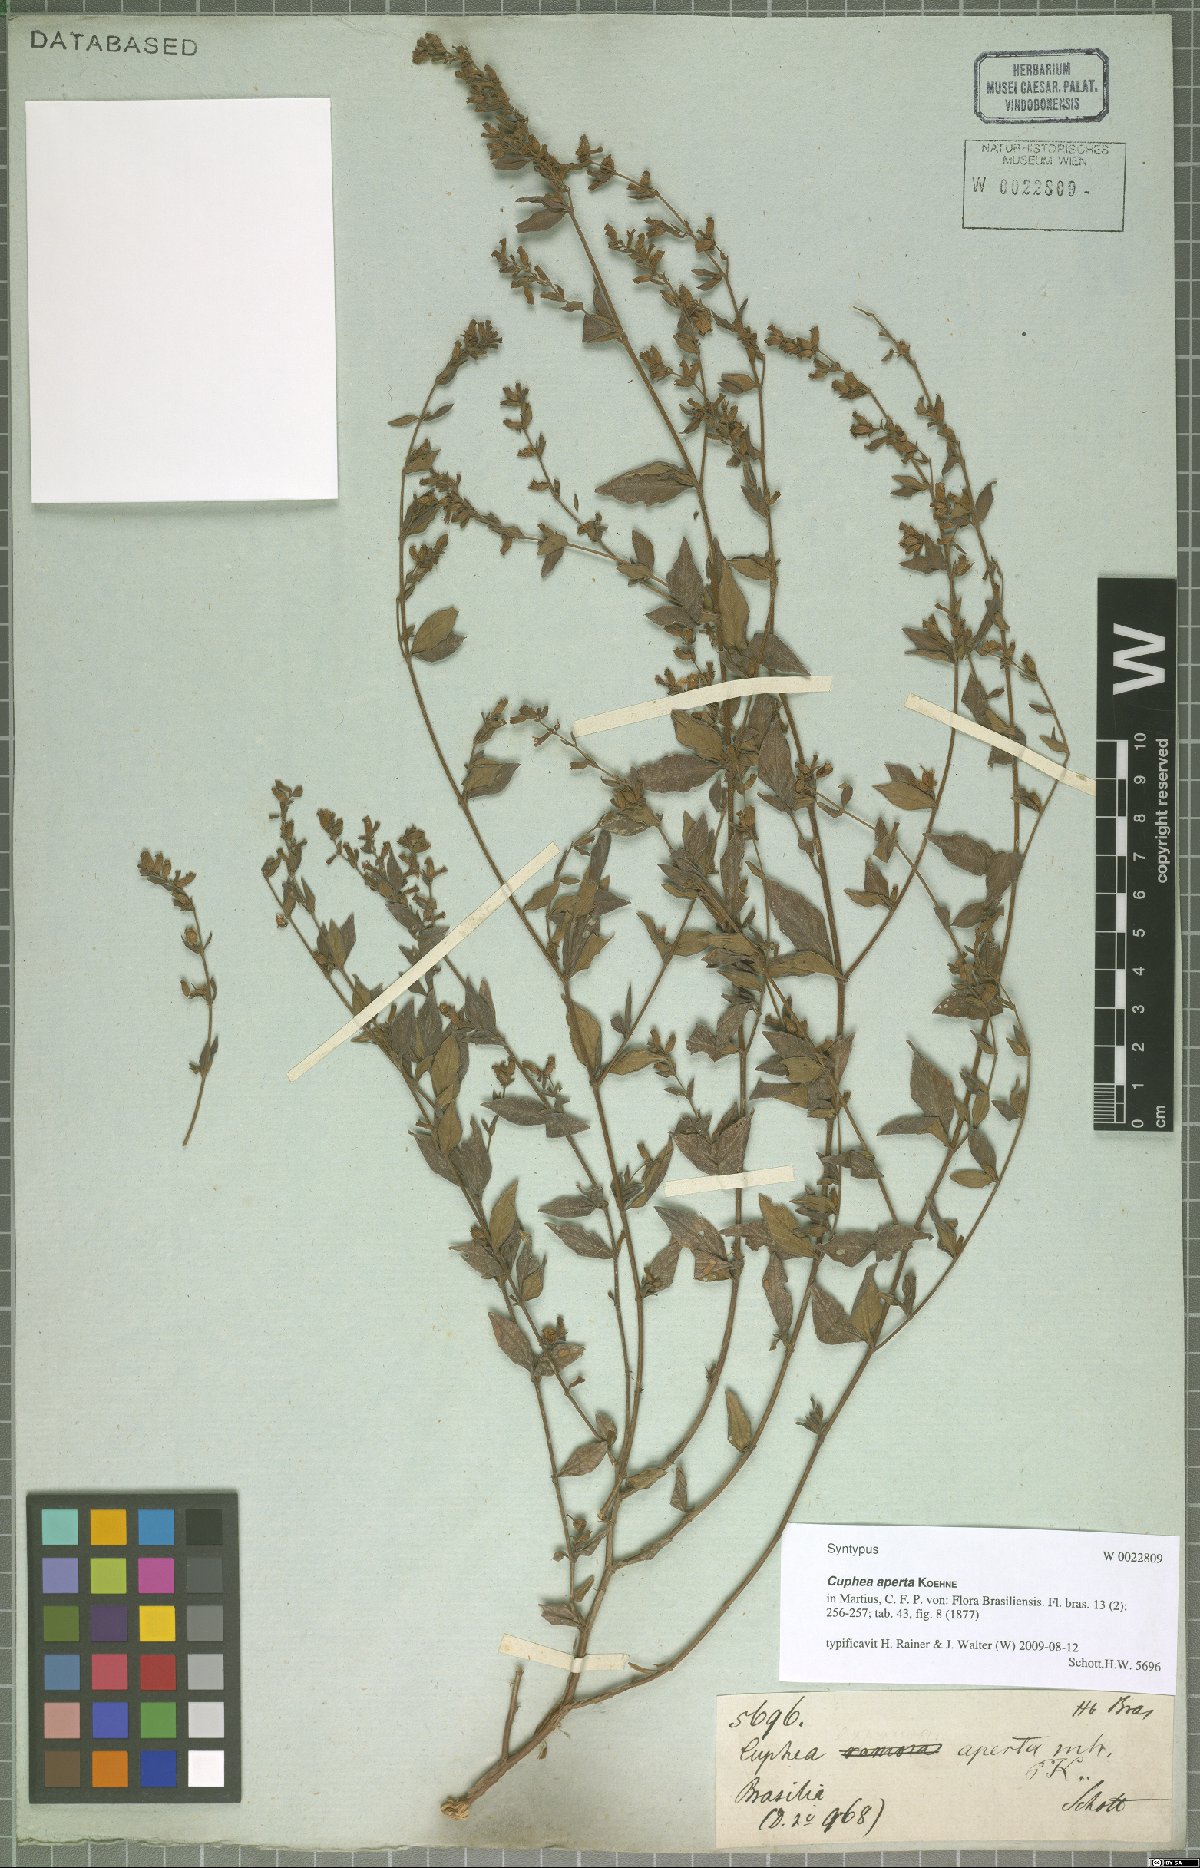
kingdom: Plantae
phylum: Tracheophyta
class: Magnoliopsida
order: Myrtales
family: Lythraceae
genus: Cuphea
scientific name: Cuphea aperta
